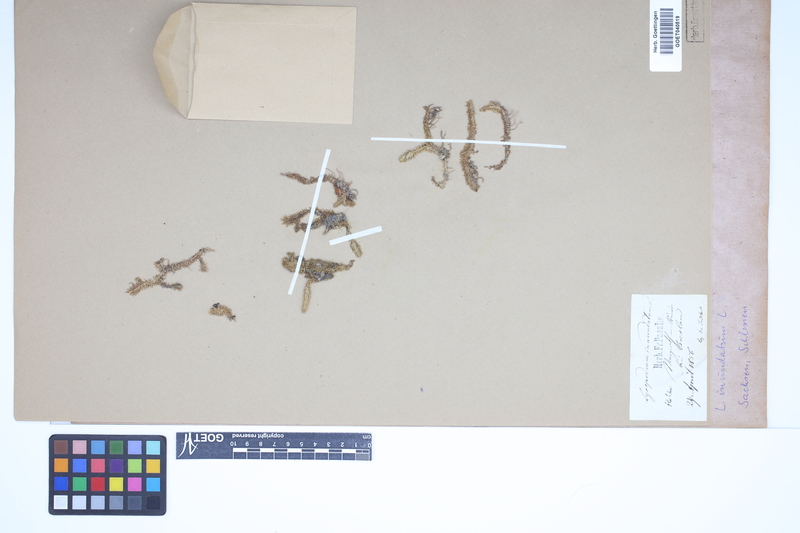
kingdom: Plantae
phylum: Tracheophyta
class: Lycopodiopsida
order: Lycopodiales
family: Lycopodiaceae
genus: Lycopodiella
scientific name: Lycopodiella inundata
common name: Marsh clubmoss
